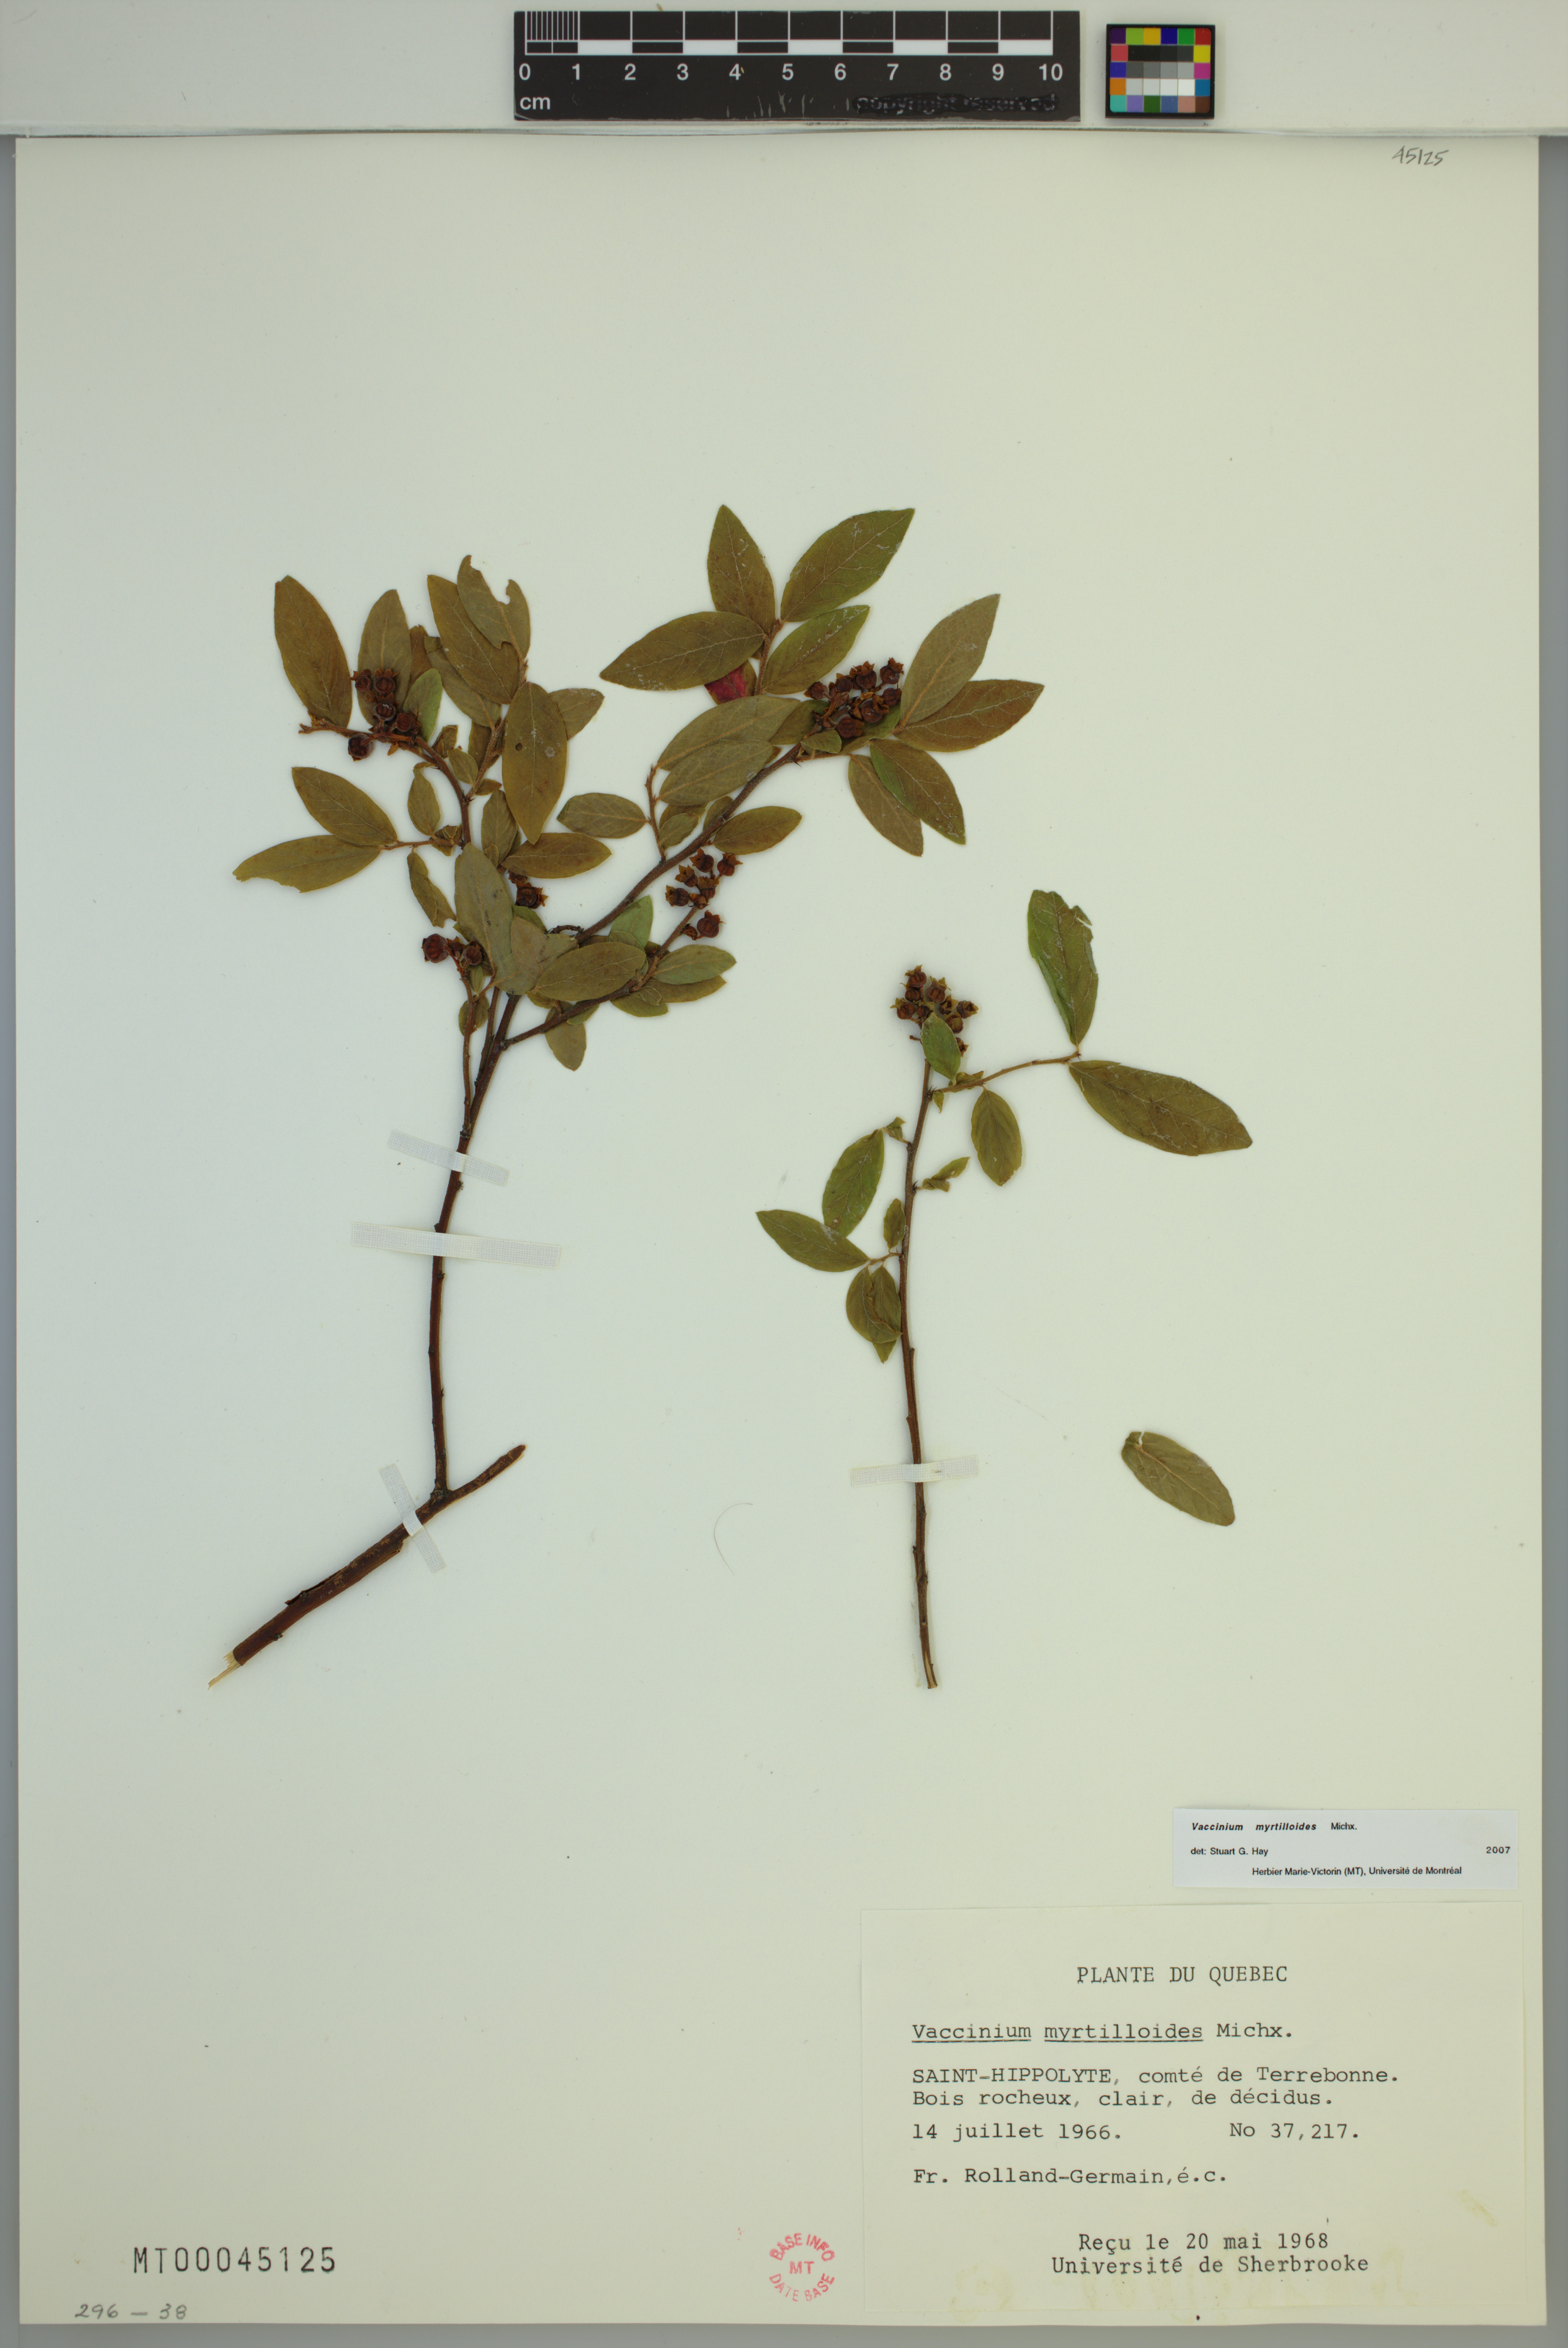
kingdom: Plantae
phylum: Tracheophyta
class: Magnoliopsida
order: Ericales
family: Ericaceae
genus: Vaccinium
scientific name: Vaccinium myrtilloides
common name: Canada blueberry
